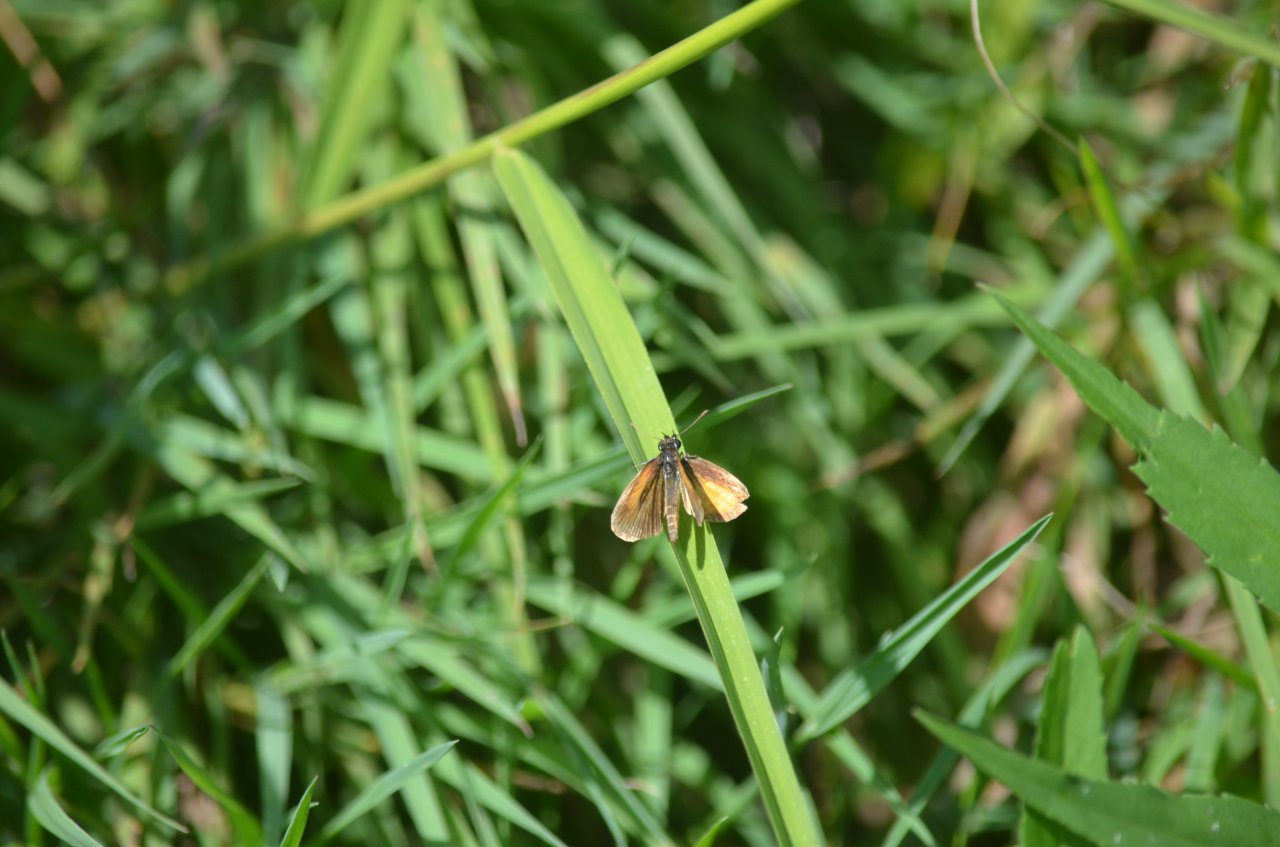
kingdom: Animalia
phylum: Arthropoda
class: Insecta
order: Lepidoptera
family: Hesperiidae
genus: Ancyloxypha
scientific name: Ancyloxypha numitor
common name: Least Skipper
